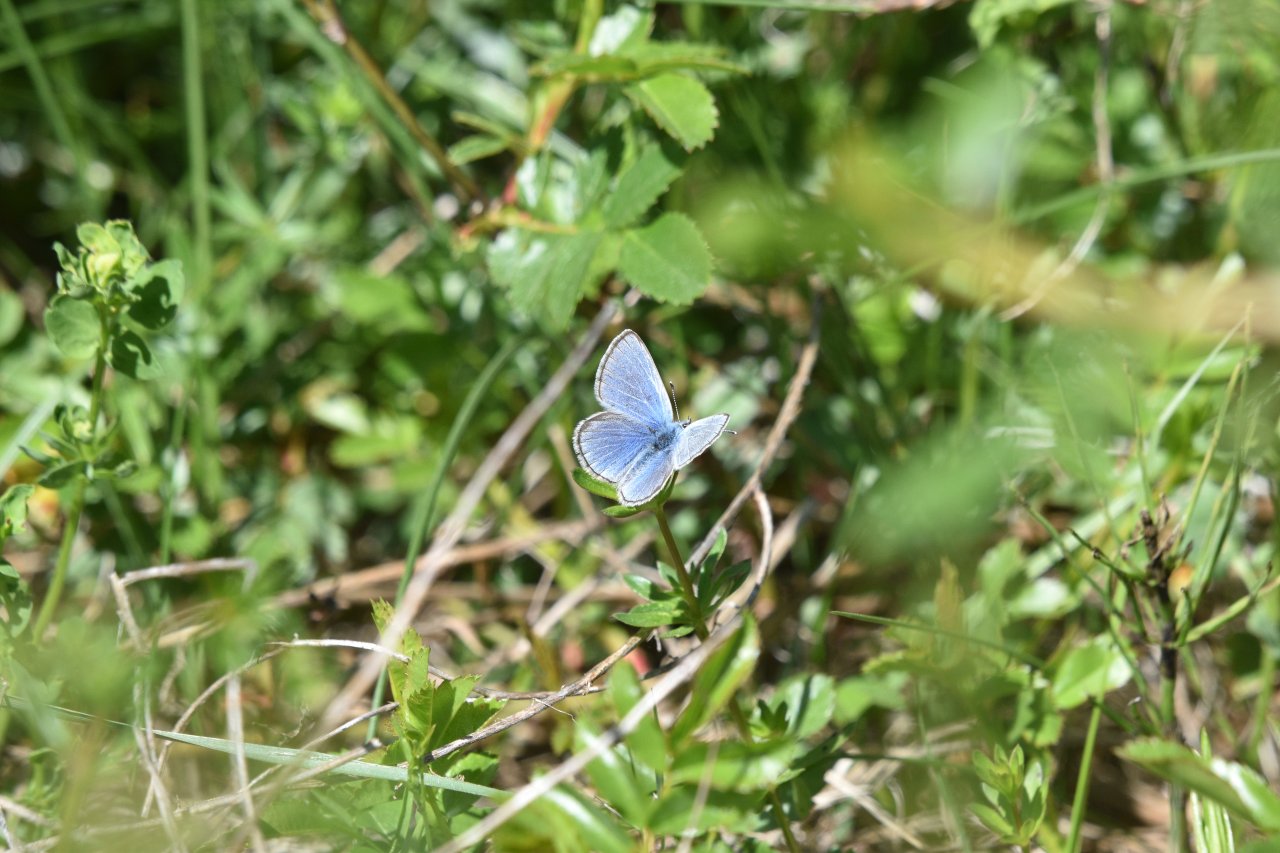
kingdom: Animalia
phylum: Arthropoda
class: Insecta
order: Lepidoptera
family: Lycaenidae
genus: Glaucopsyche
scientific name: Glaucopsyche lygdamus
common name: Silvery Blue
